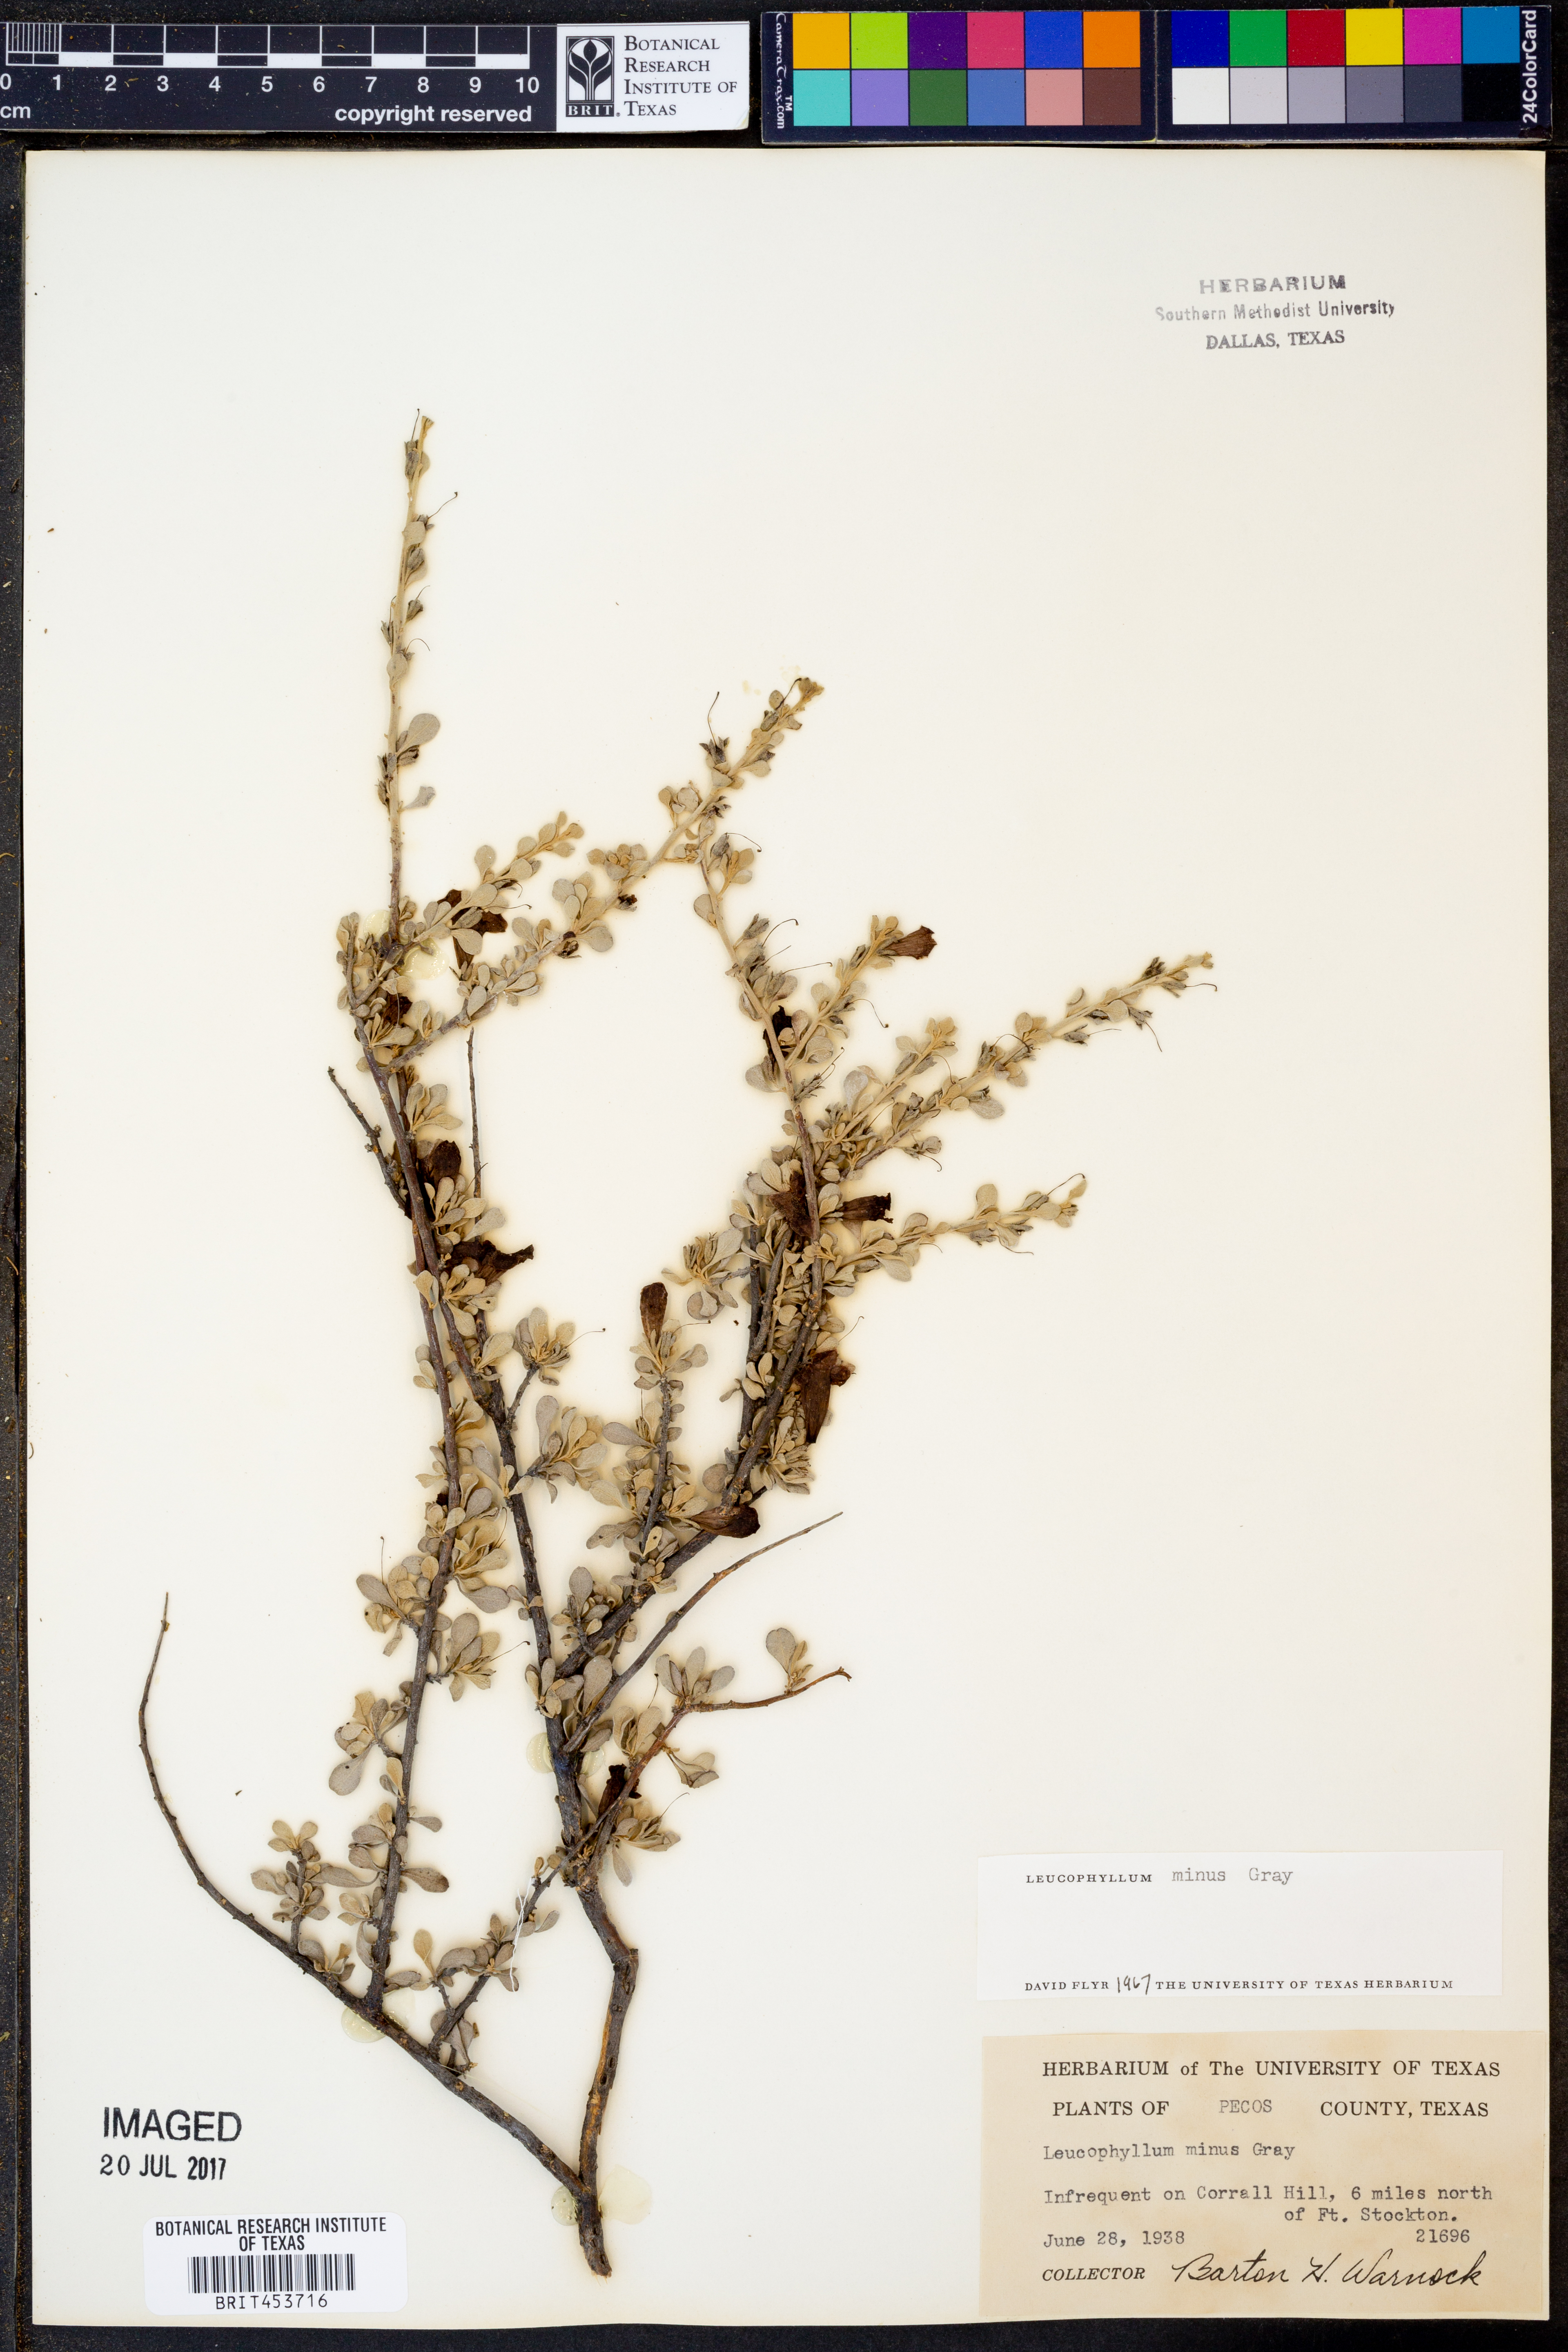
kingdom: Plantae
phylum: Tracheophyta
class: Magnoliopsida
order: Lamiales
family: Scrophulariaceae
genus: Leucophyllum
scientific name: Leucophyllum minus
